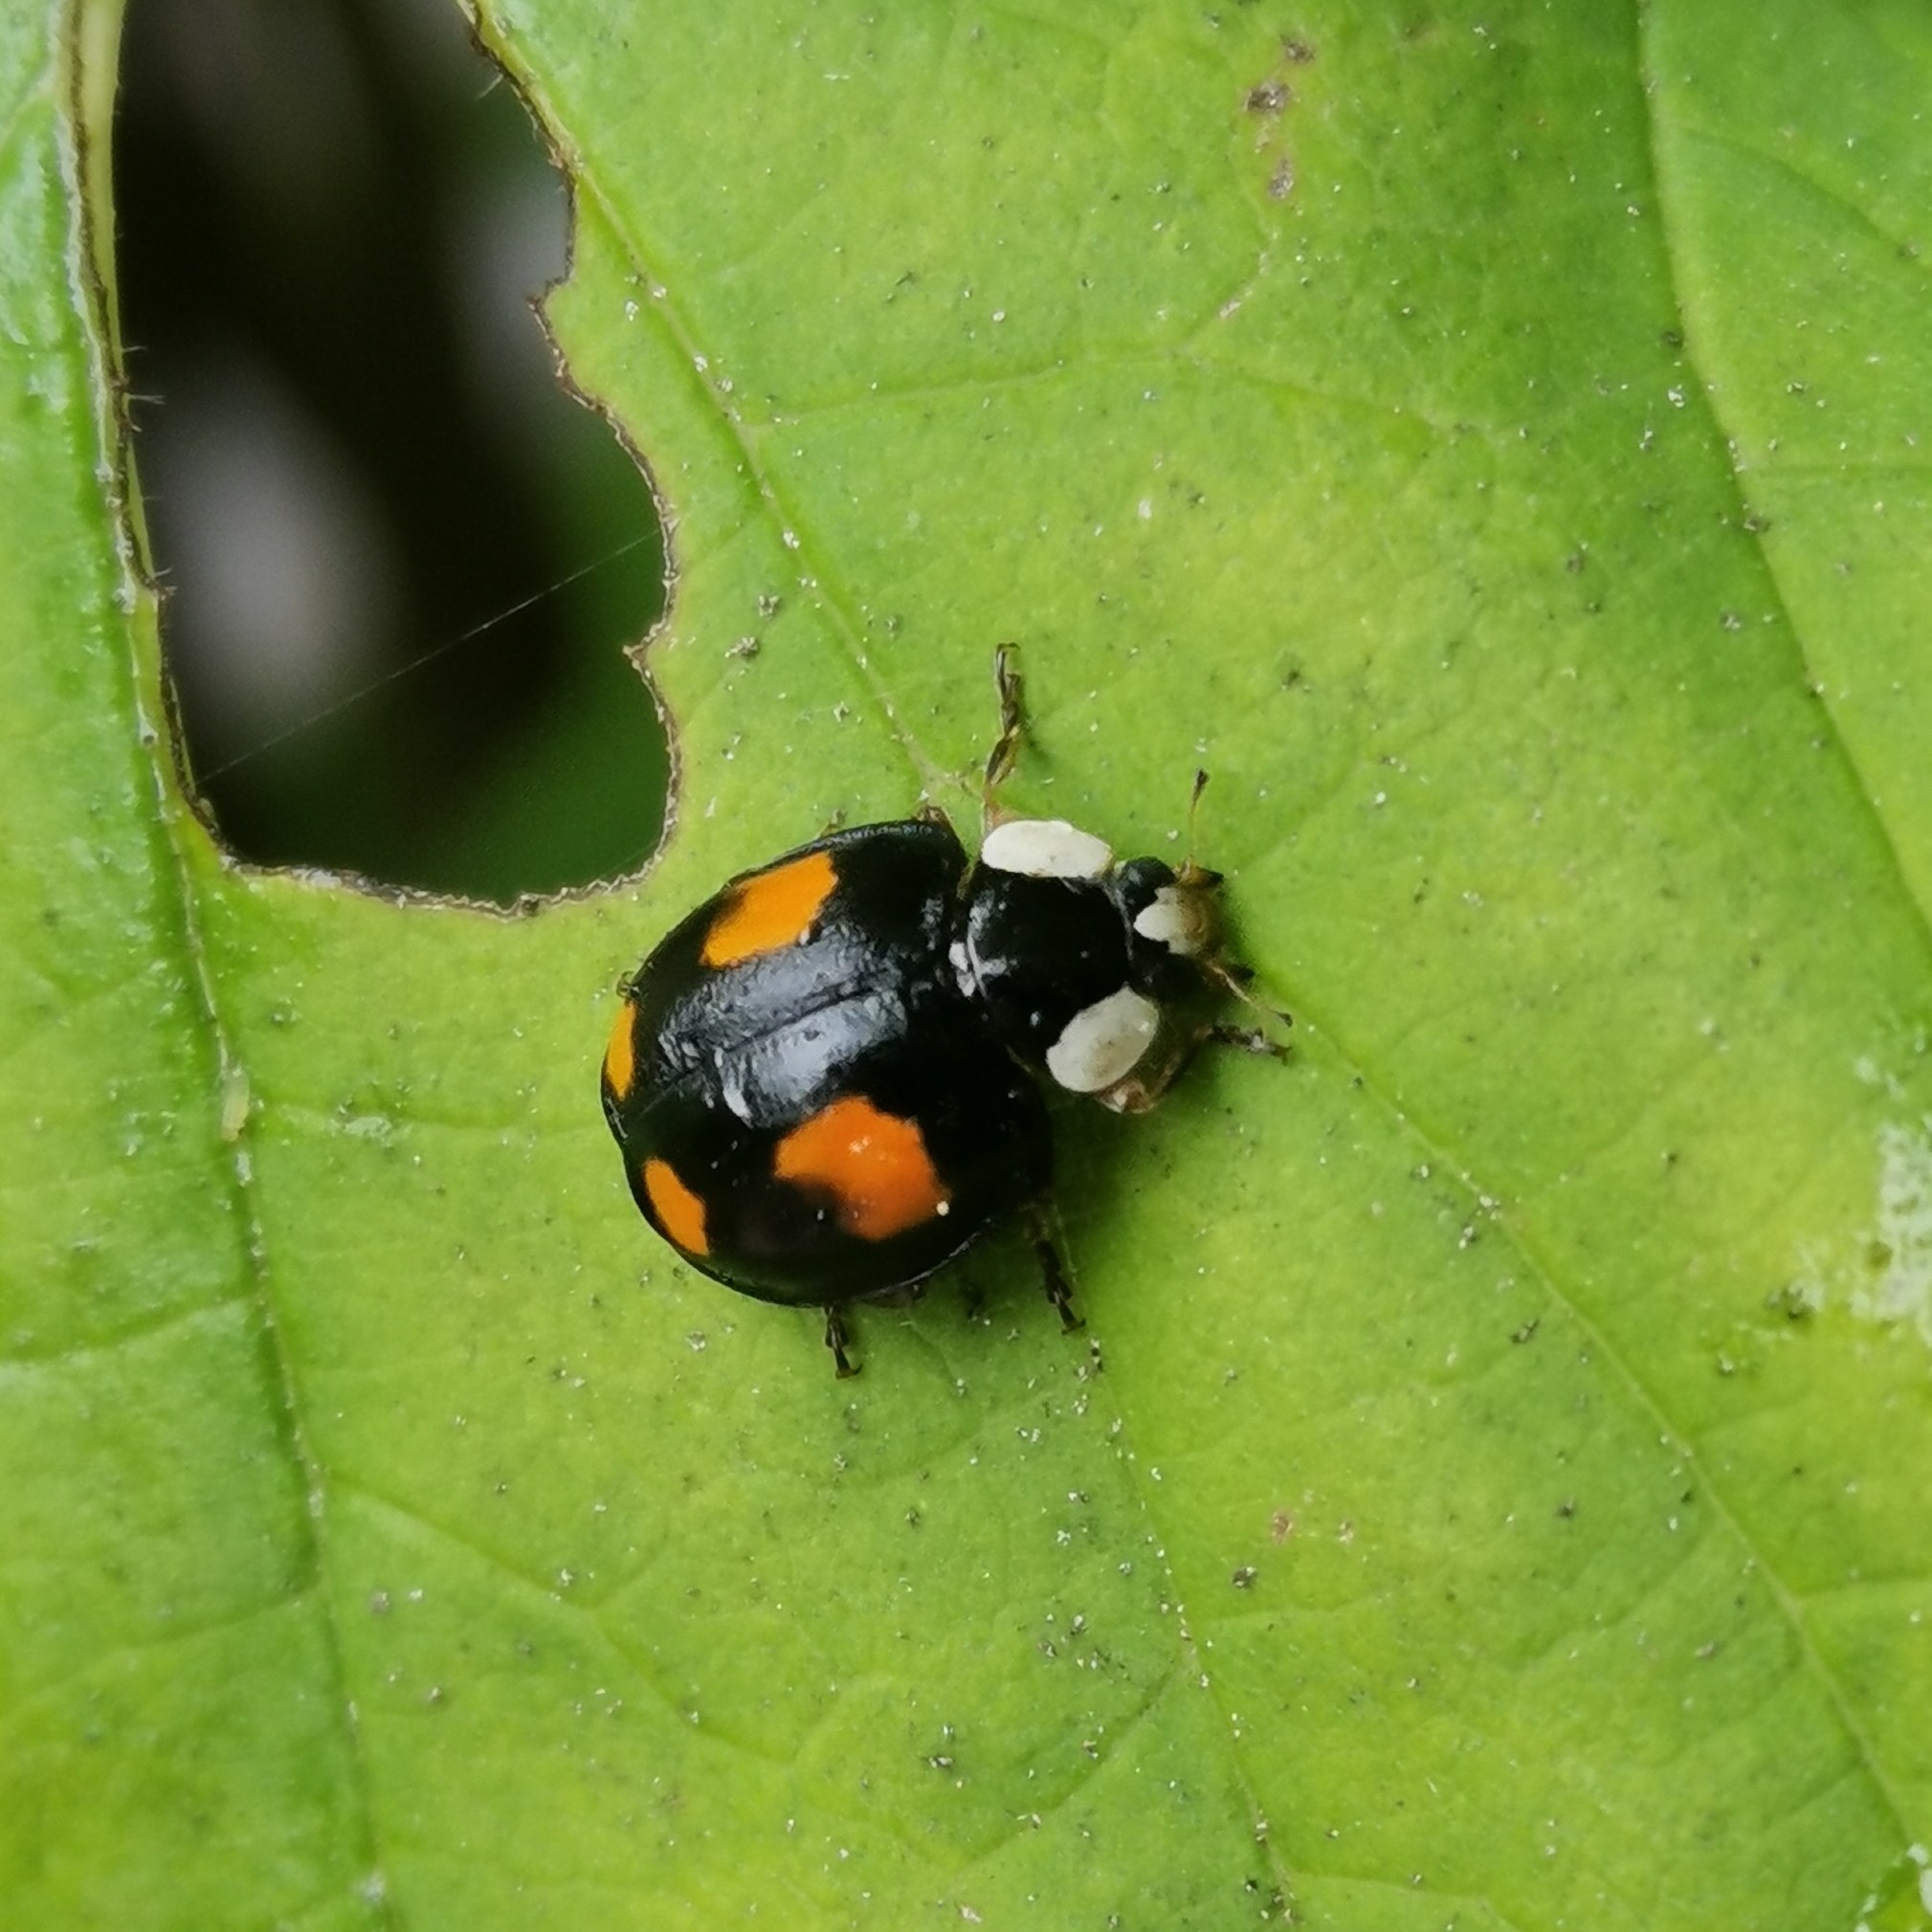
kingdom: Animalia
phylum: Arthropoda
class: Insecta
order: Coleoptera
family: Coccinellidae
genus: Harmonia
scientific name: Harmonia axyridis
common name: Harlekinmariehøne
